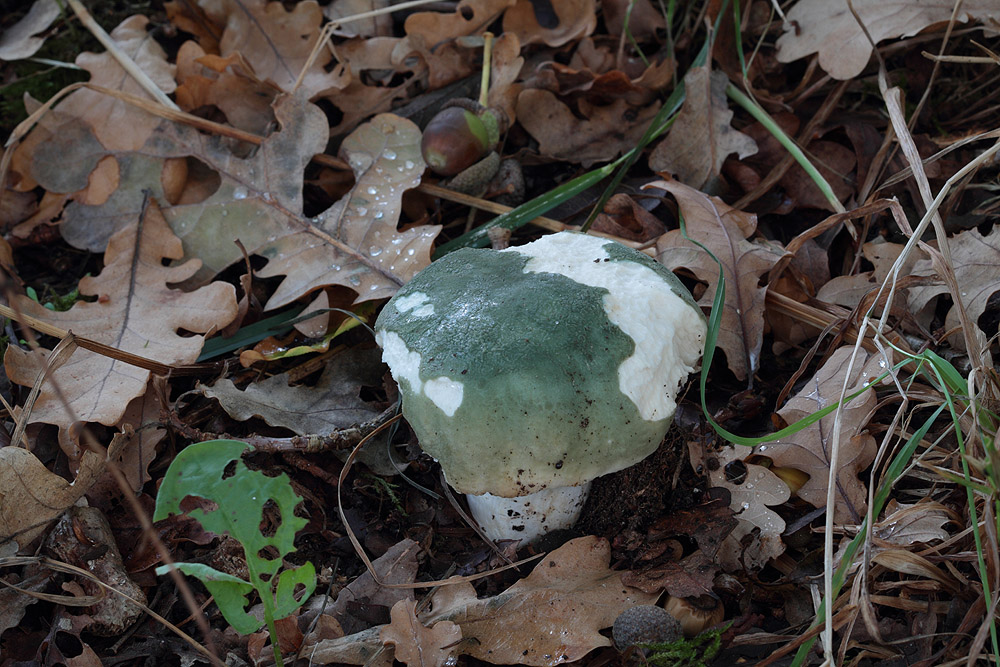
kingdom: Fungi
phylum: Basidiomycota
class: Agaricomycetes
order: Russulales
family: Russulaceae
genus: Russula
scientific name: Russula virescens
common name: spanskgrøn skørhat
